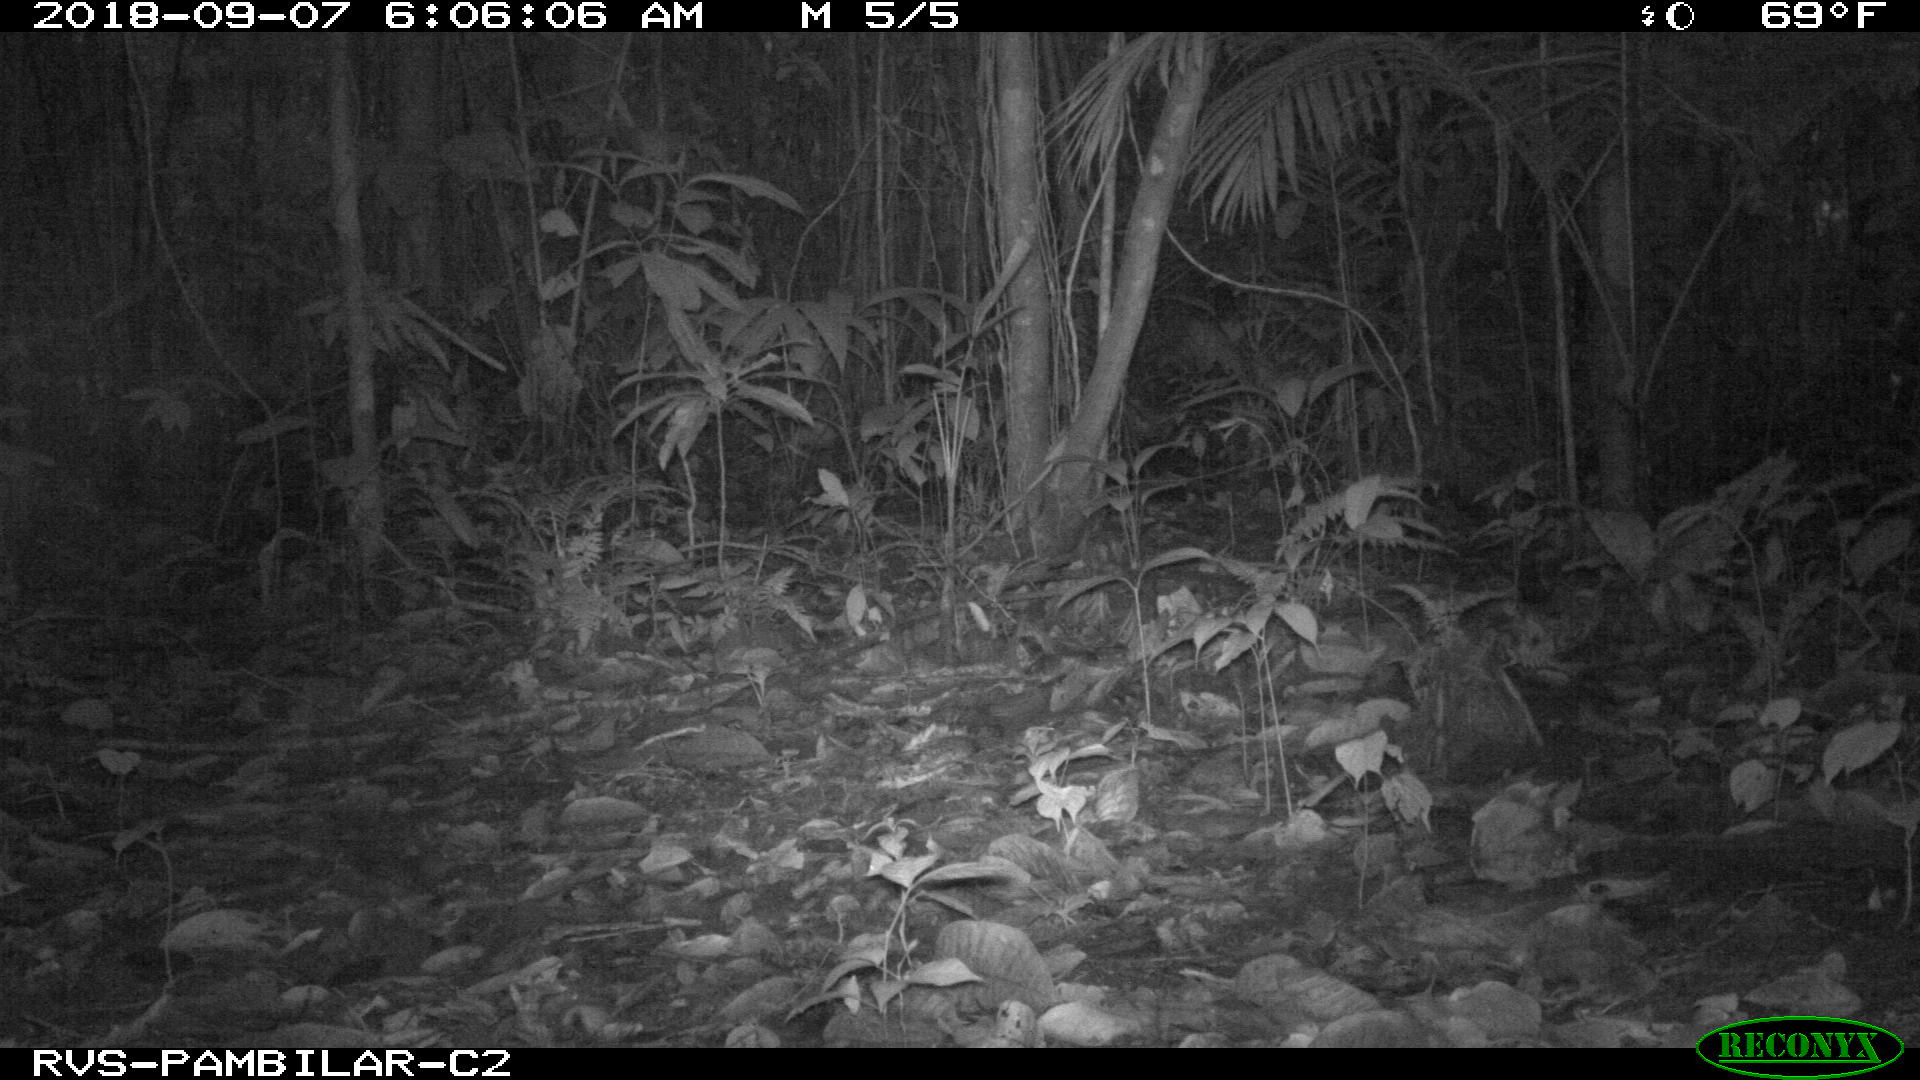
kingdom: Animalia
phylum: Chordata
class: Mammalia
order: Rodentia
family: Dasyproctidae
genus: Dasyprocta
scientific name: Dasyprocta punctata
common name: Central american agouti
